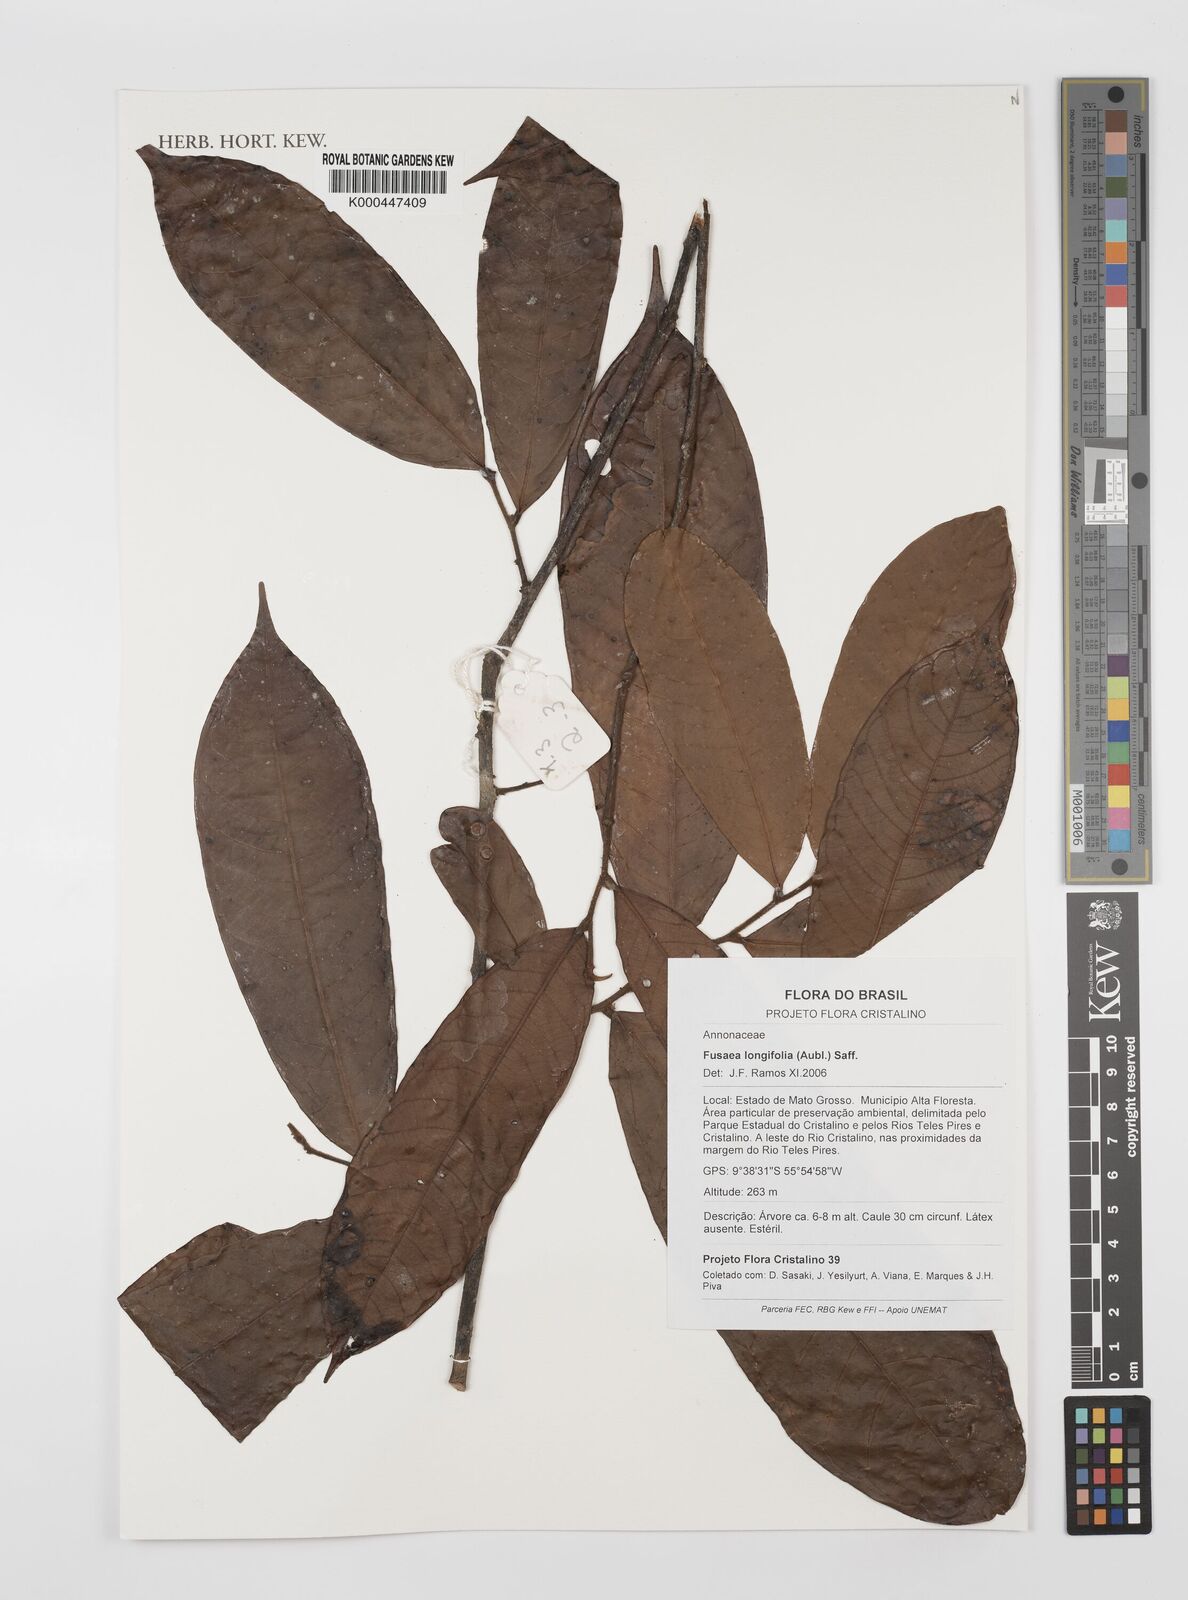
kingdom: Plantae
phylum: Tracheophyta
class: Magnoliopsida
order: Magnoliales
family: Annonaceae
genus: Fusaea
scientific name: Fusaea longifolia
